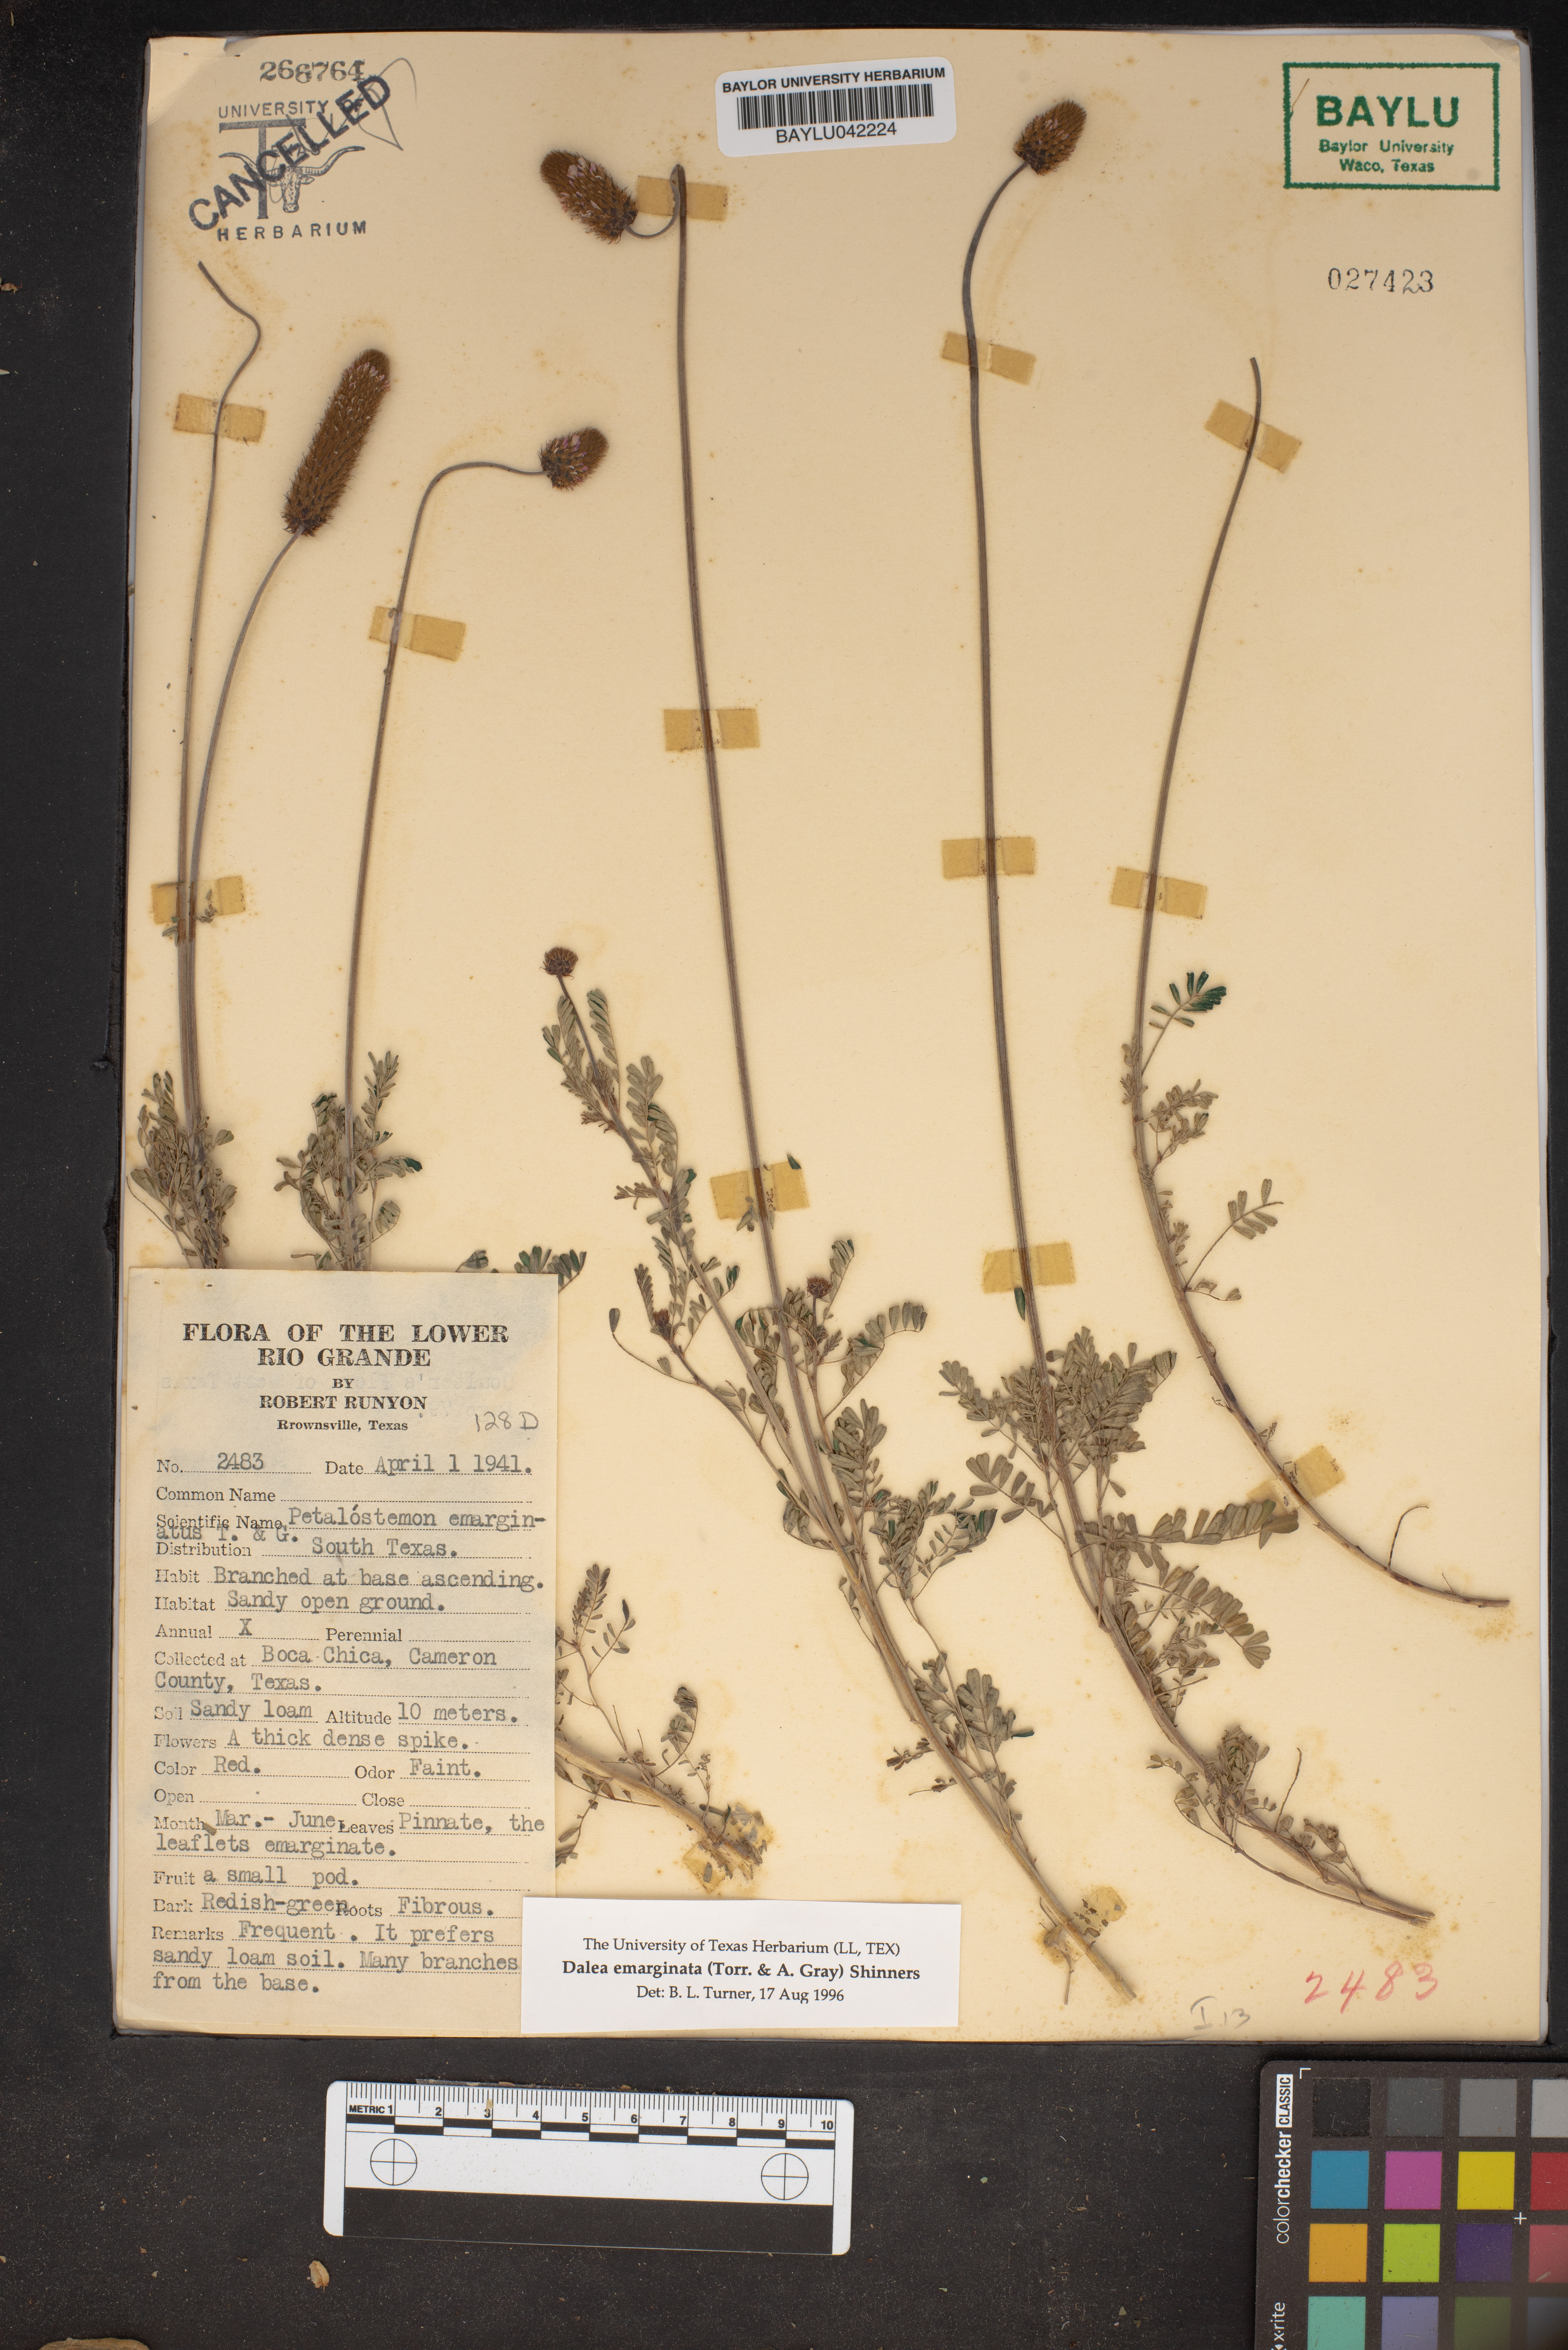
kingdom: Plantae
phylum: Tracheophyta
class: Magnoliopsida
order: Fabales
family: Fabaceae
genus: Dalea
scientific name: Dalea emarginata
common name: Wedgeleaf prairie clover
